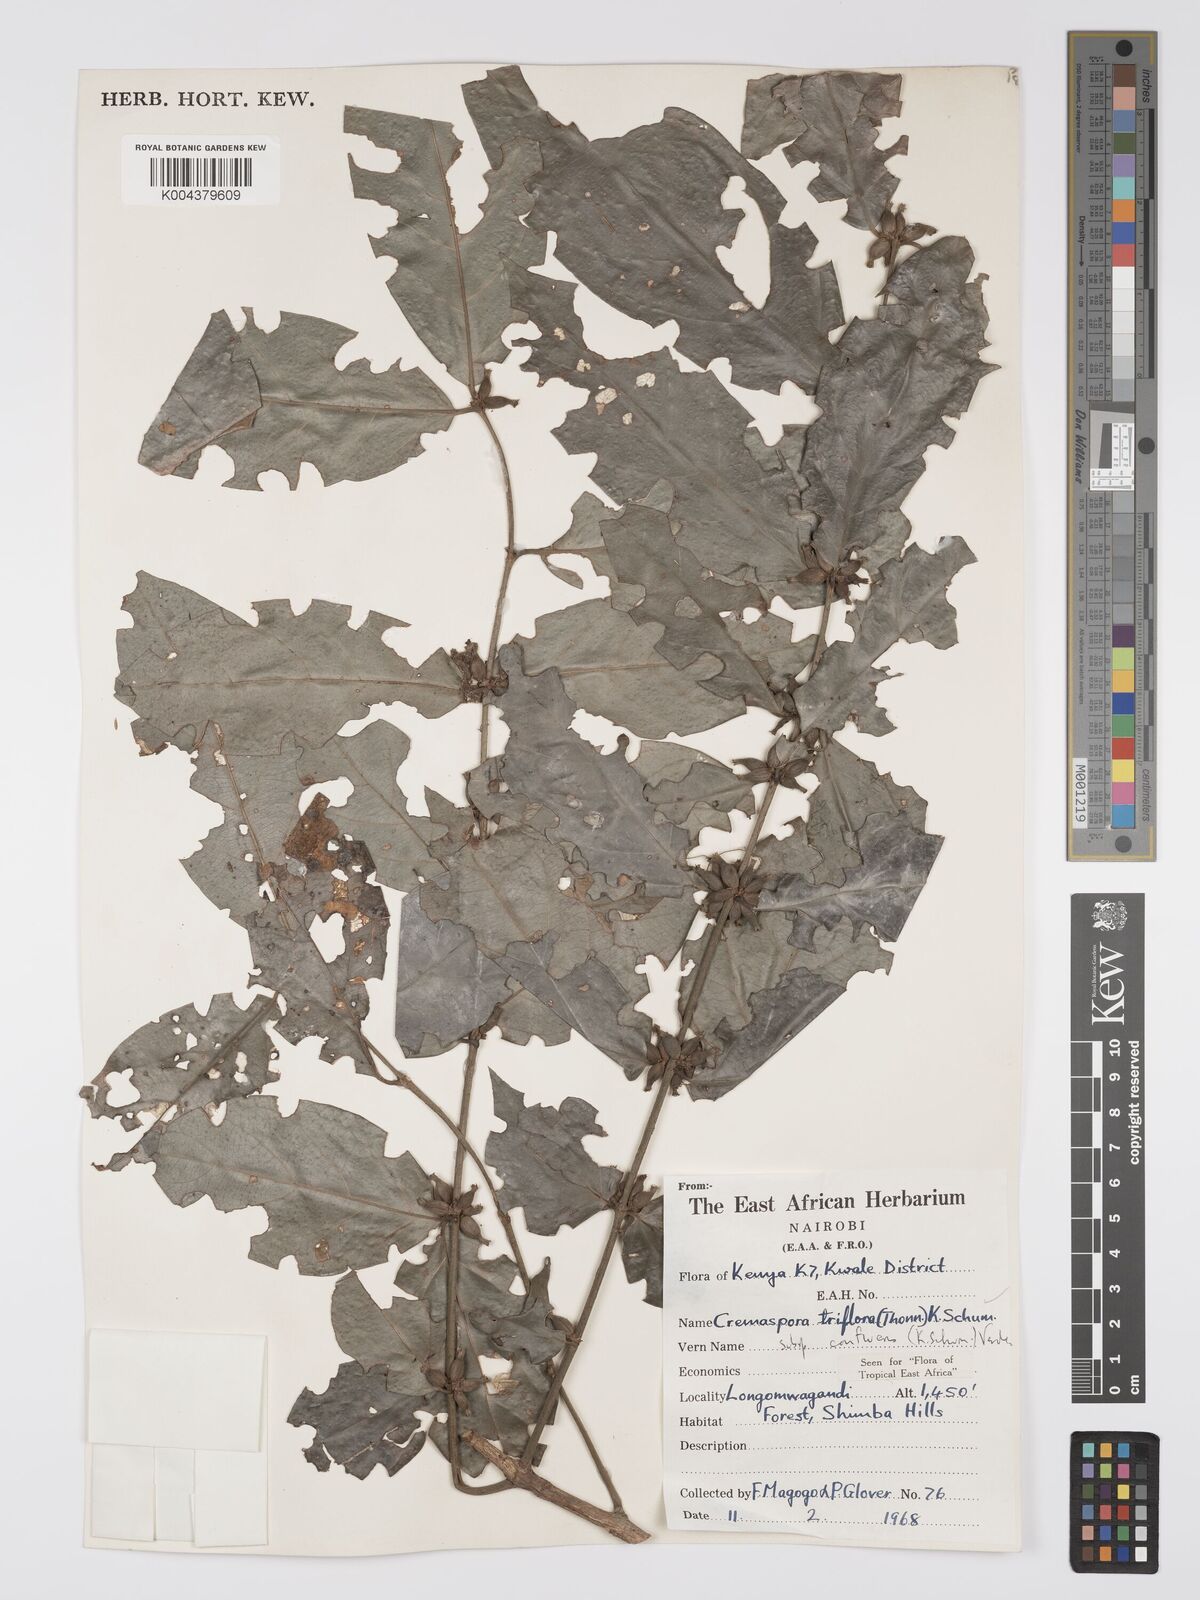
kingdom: Plantae
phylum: Tracheophyta
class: Magnoliopsida
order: Gentianales
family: Rubiaceae
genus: Cremaspora
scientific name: Cremaspora triflora
